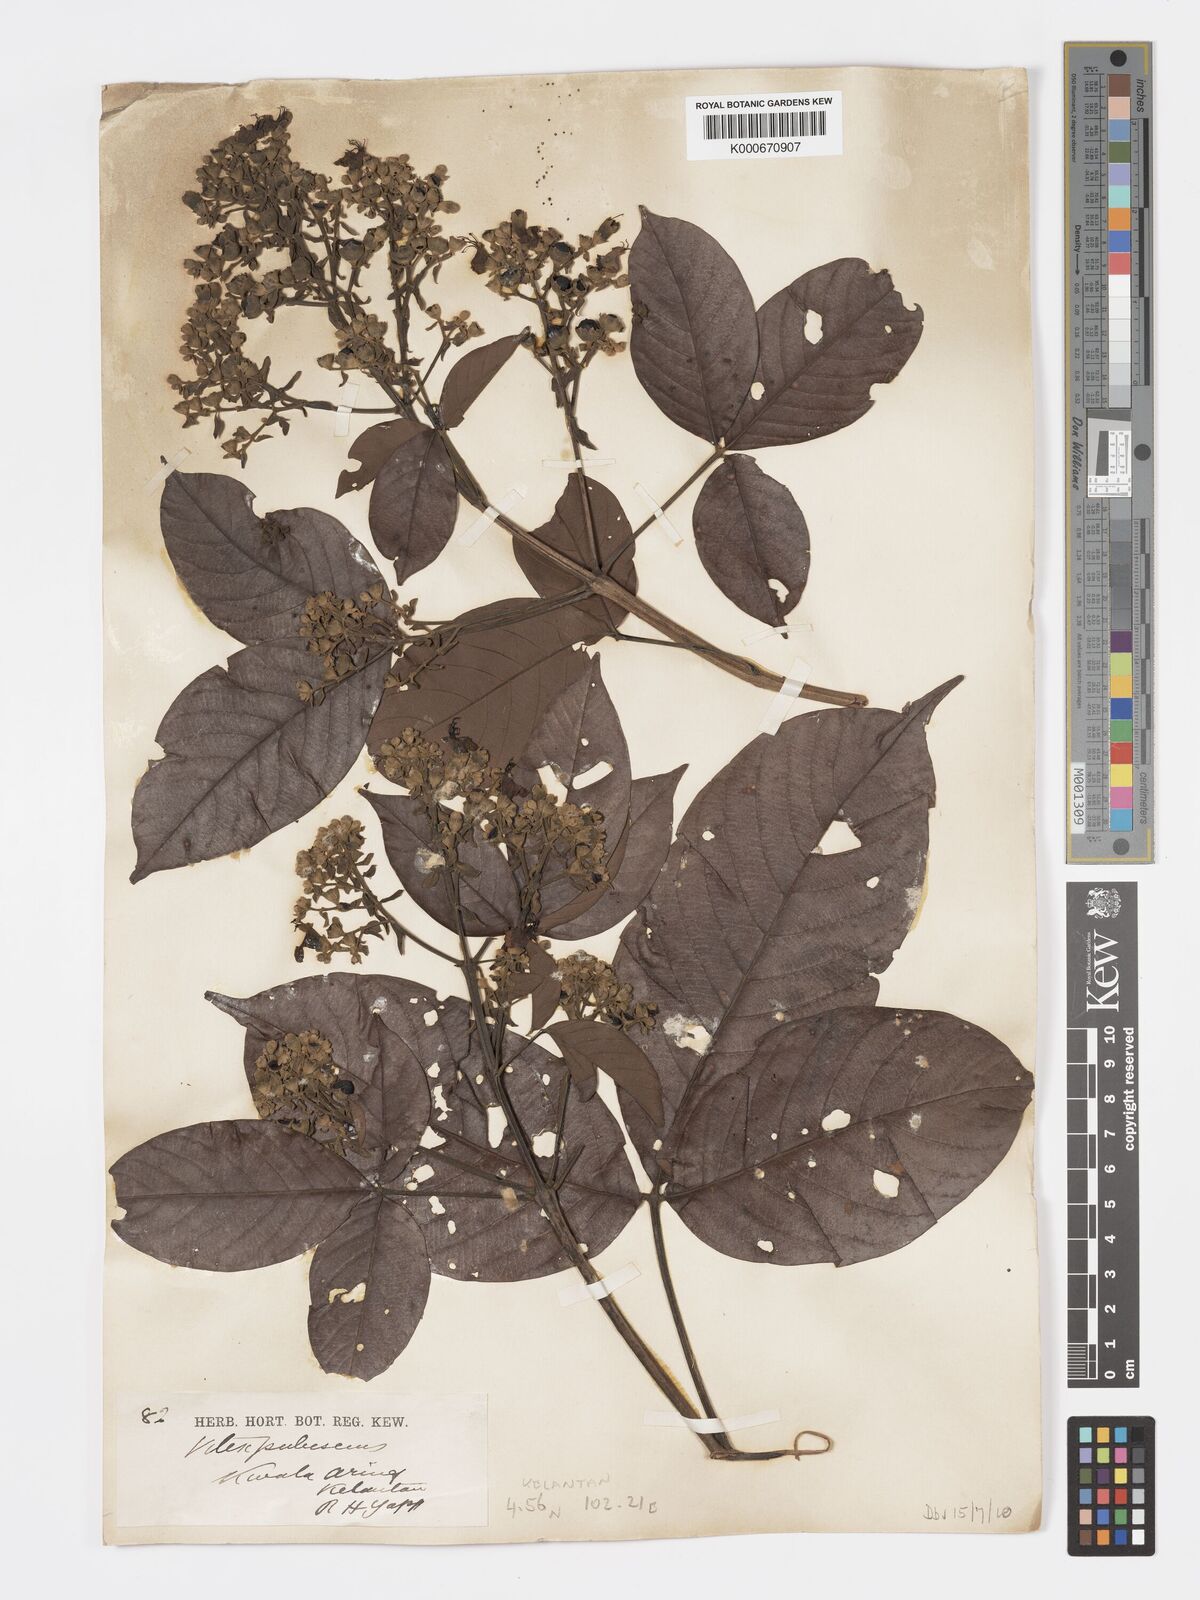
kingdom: Plantae
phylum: Tracheophyta
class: Magnoliopsida
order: Lamiales
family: Lamiaceae
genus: Vitex
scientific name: Vitex pinnata
